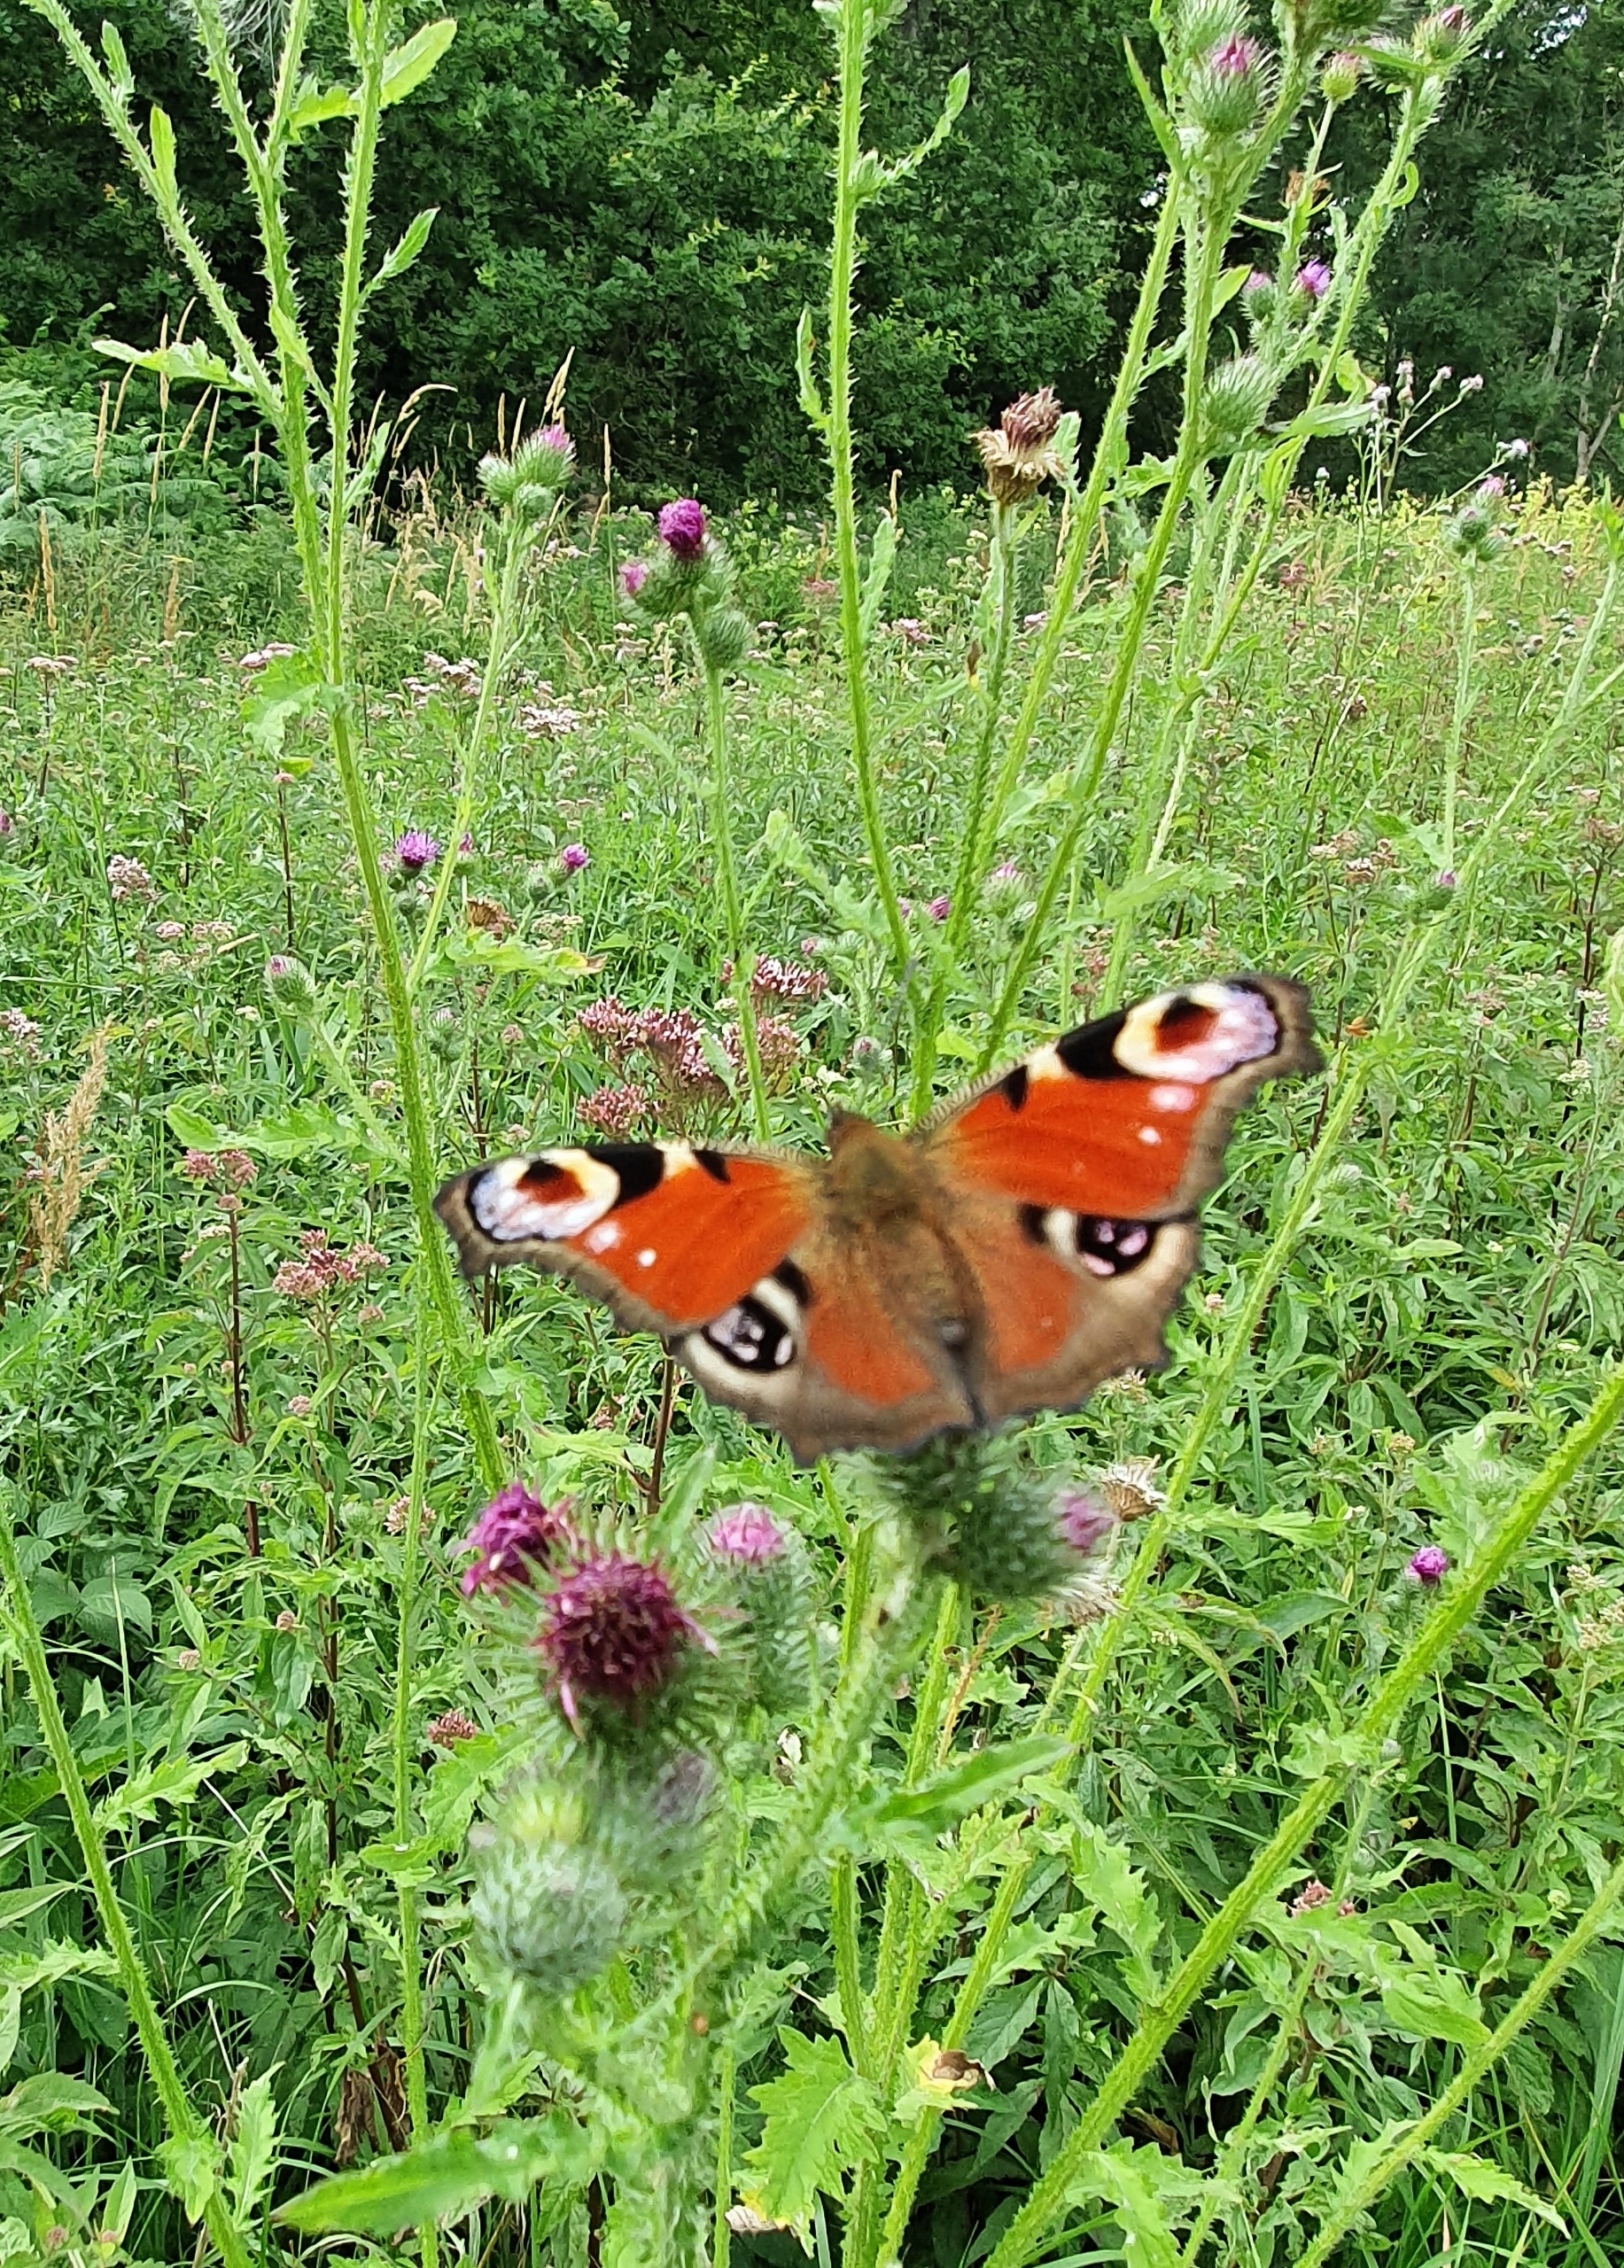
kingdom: Animalia
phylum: Arthropoda
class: Insecta
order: Lepidoptera
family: Nymphalidae
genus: Aglais
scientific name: Aglais io
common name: Dagpåfugleøje
